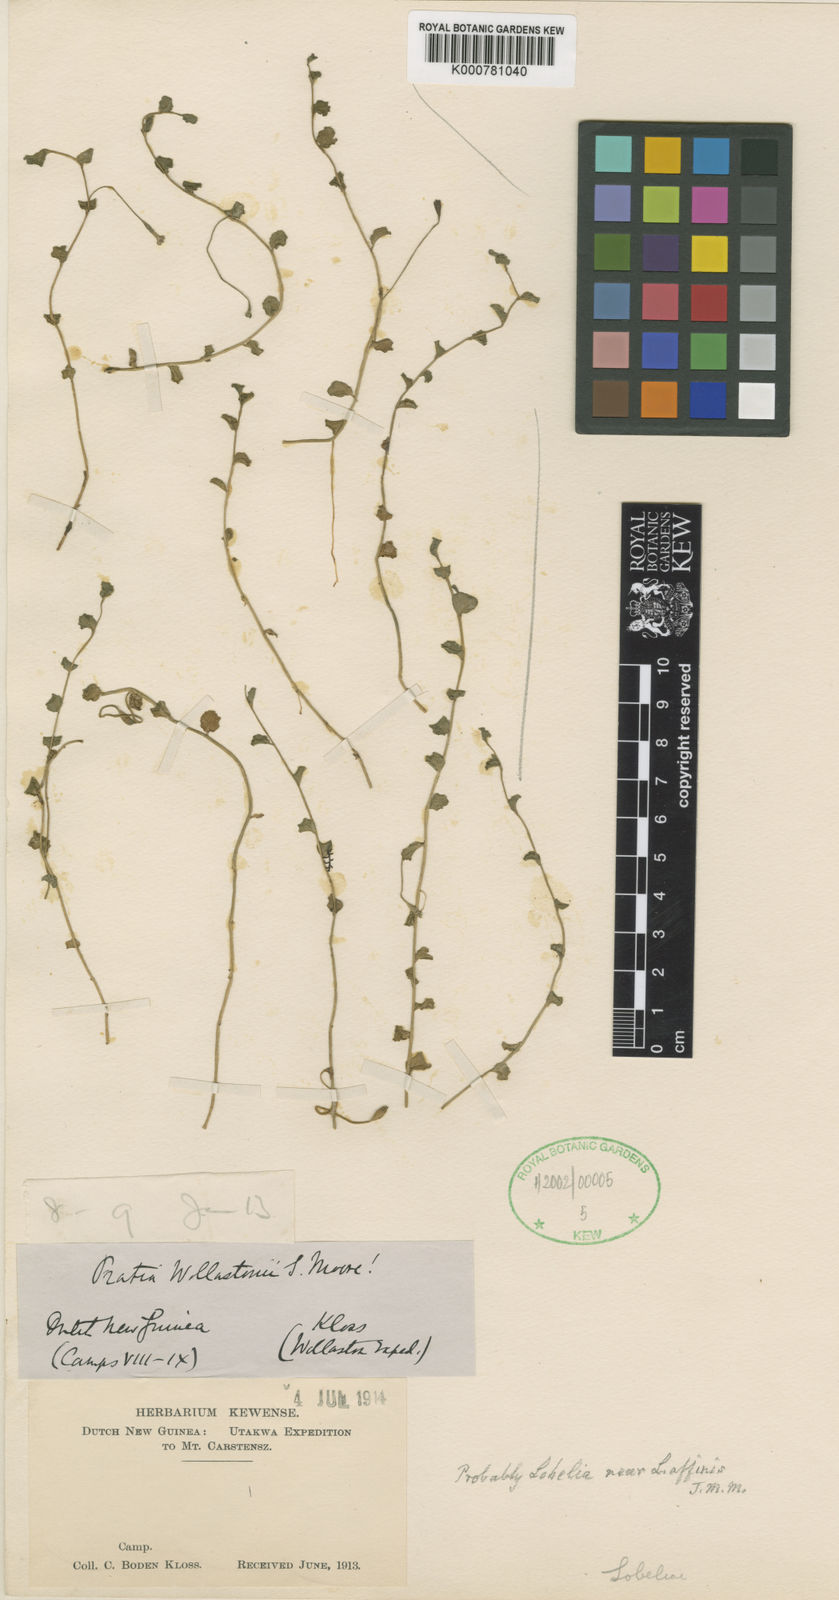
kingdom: Plantae
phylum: Tracheophyta
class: Magnoliopsida
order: Asterales
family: Campanulaceae
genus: Lobelia
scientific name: Lobelia angulata
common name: Lawn lobelia
